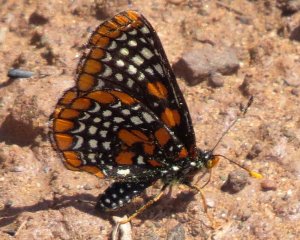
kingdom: Animalia
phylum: Arthropoda
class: Insecta
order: Lepidoptera
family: Nymphalidae
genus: Euphydryas
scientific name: Euphydryas phaeton
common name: Baltimore Checkerspot
